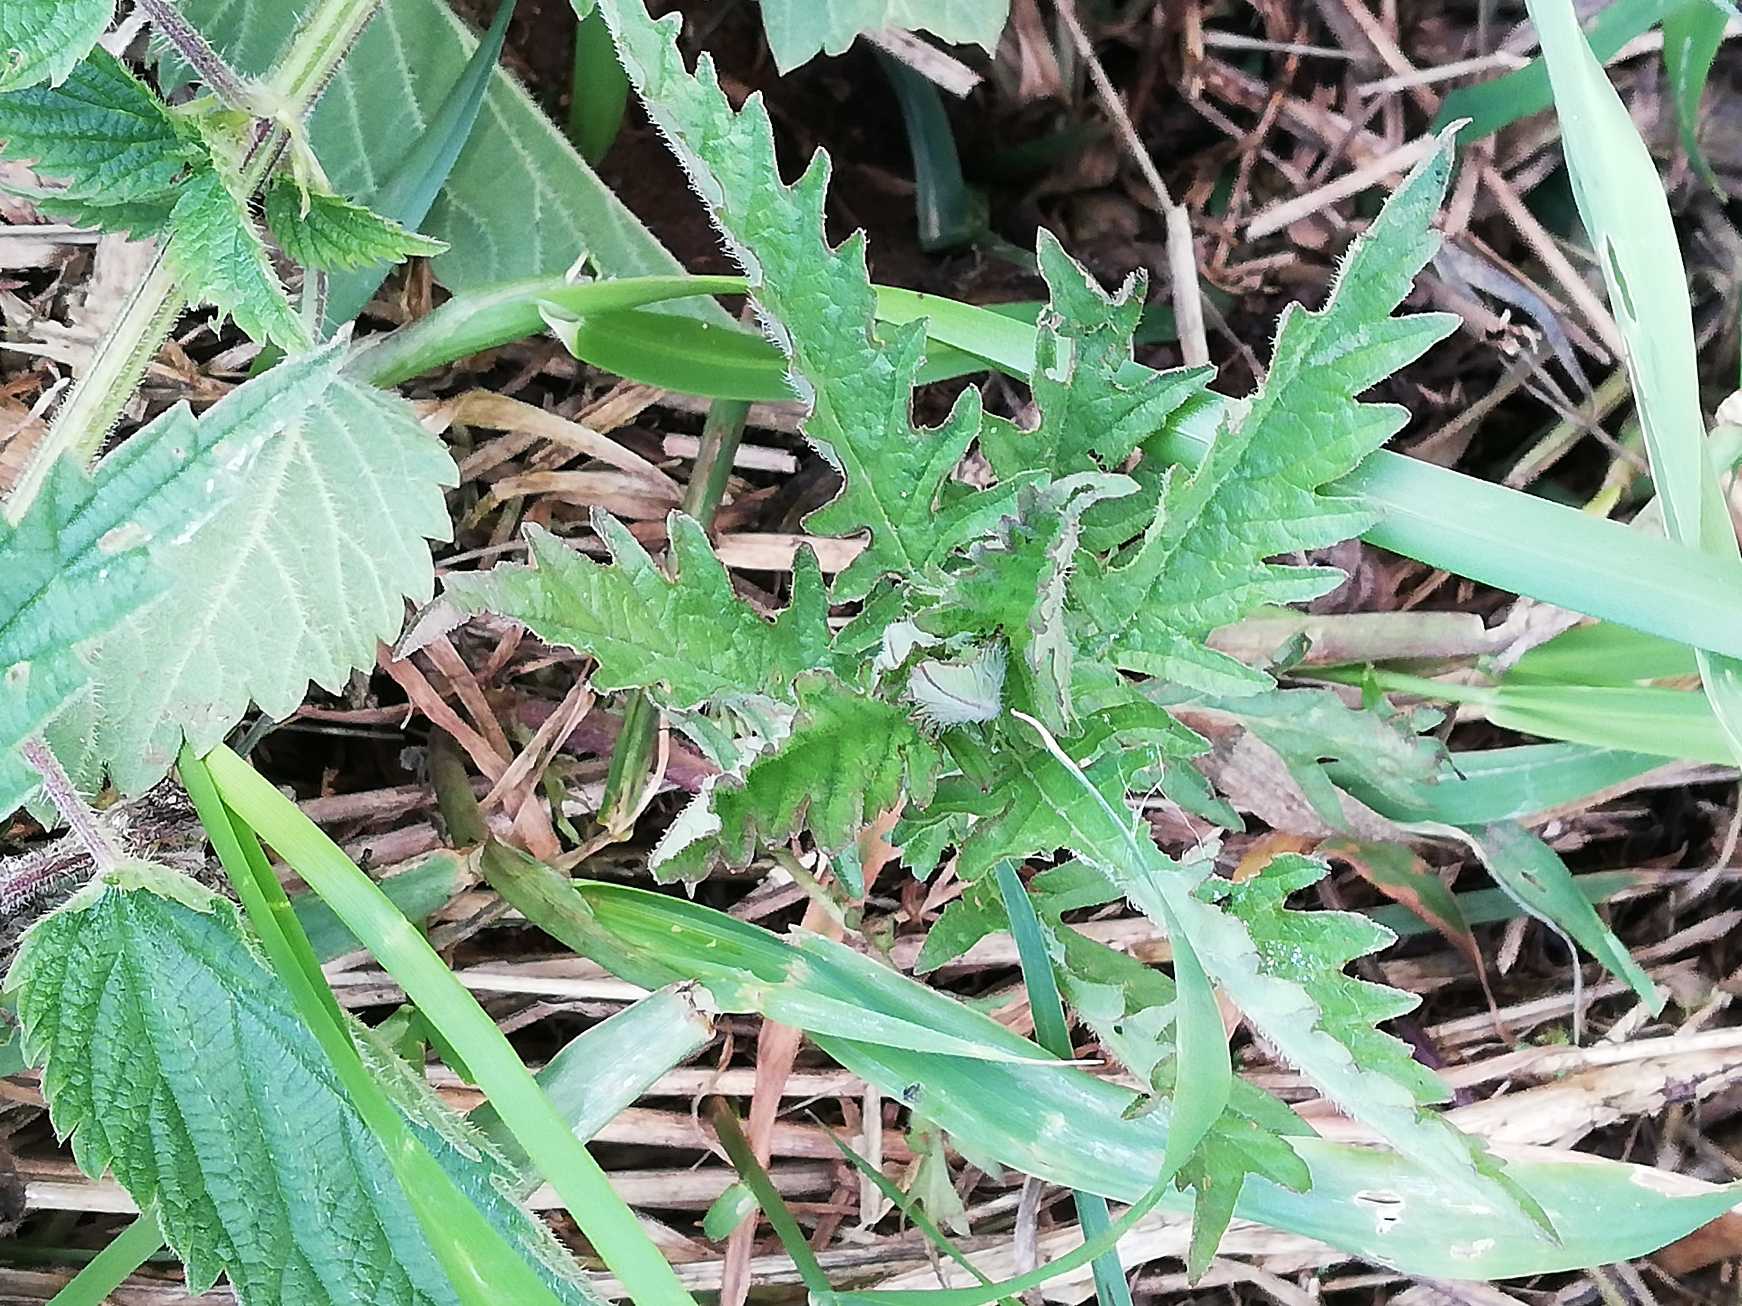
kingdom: Plantae
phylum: Tracheophyta
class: Magnoliopsida
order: Lamiales
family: Lamiaceae
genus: Lycopus
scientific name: Lycopus europaeus
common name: Sværtevæld
